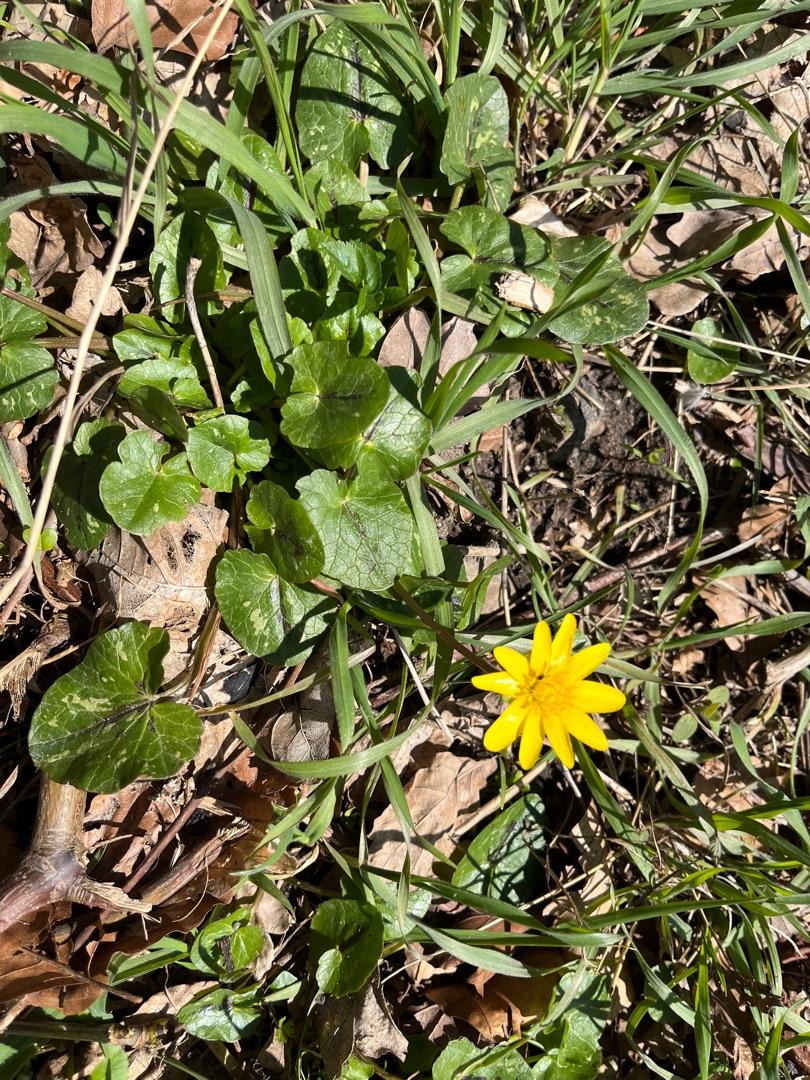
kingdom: Plantae
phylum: Tracheophyta
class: Magnoliopsida
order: Ranunculales
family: Ranunculaceae
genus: Ficaria
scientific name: Ficaria verna
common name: Vorterod
